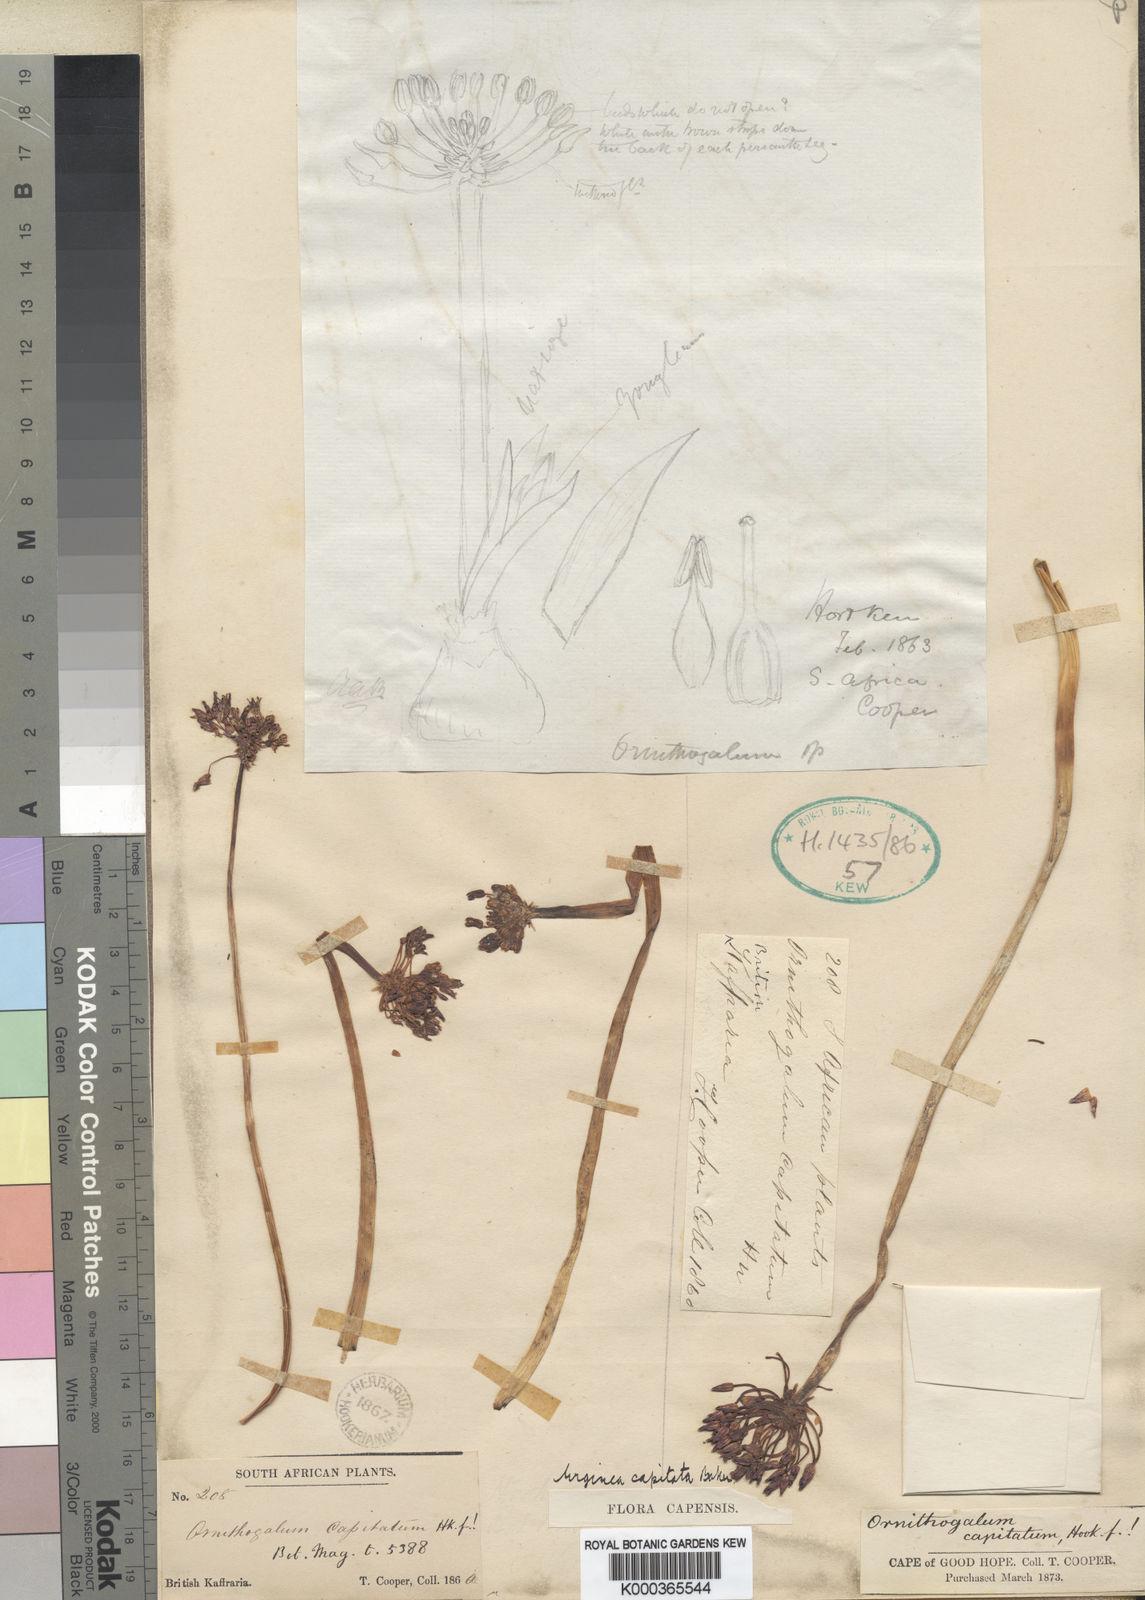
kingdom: Plantae
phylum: Tracheophyta
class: Liliopsida
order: Asparagales
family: Asparagaceae
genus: Fusifilum
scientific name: Fusifilum depressum
